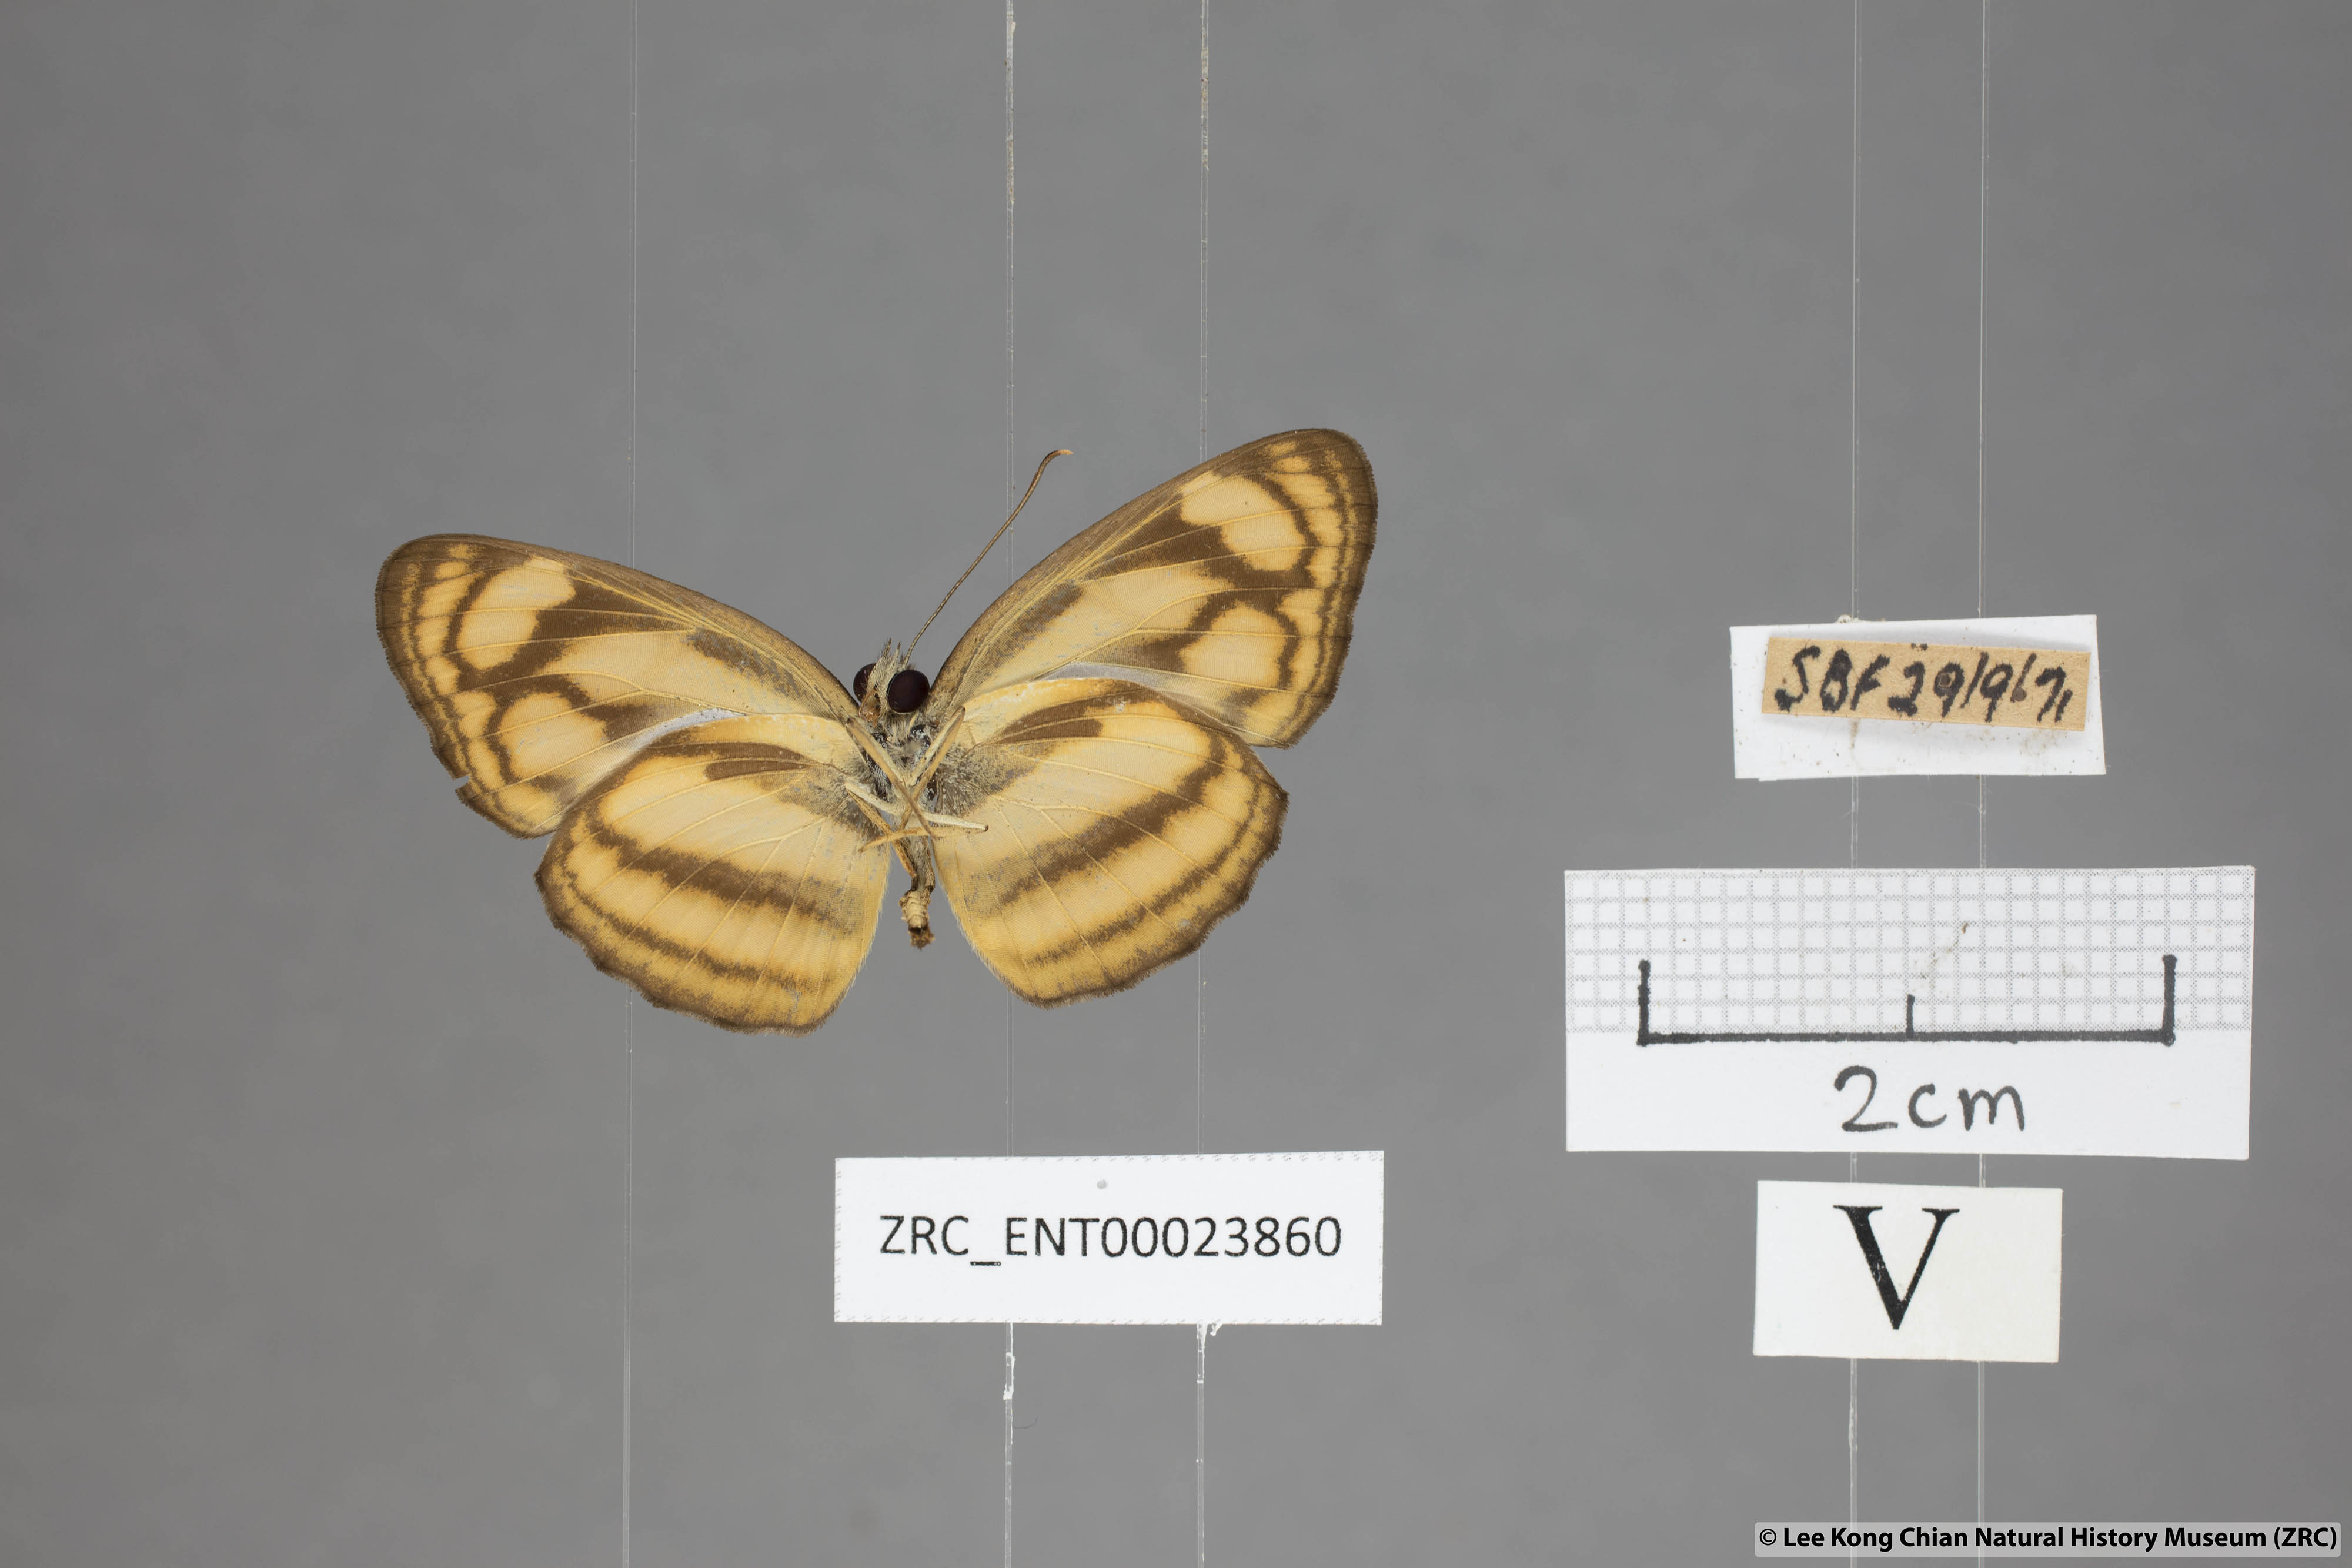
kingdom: Animalia
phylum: Arthropoda
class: Insecta
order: Lepidoptera
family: Nymphalidae
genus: Lasippa
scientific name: Lasippa tiga
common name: Malayan lascar
